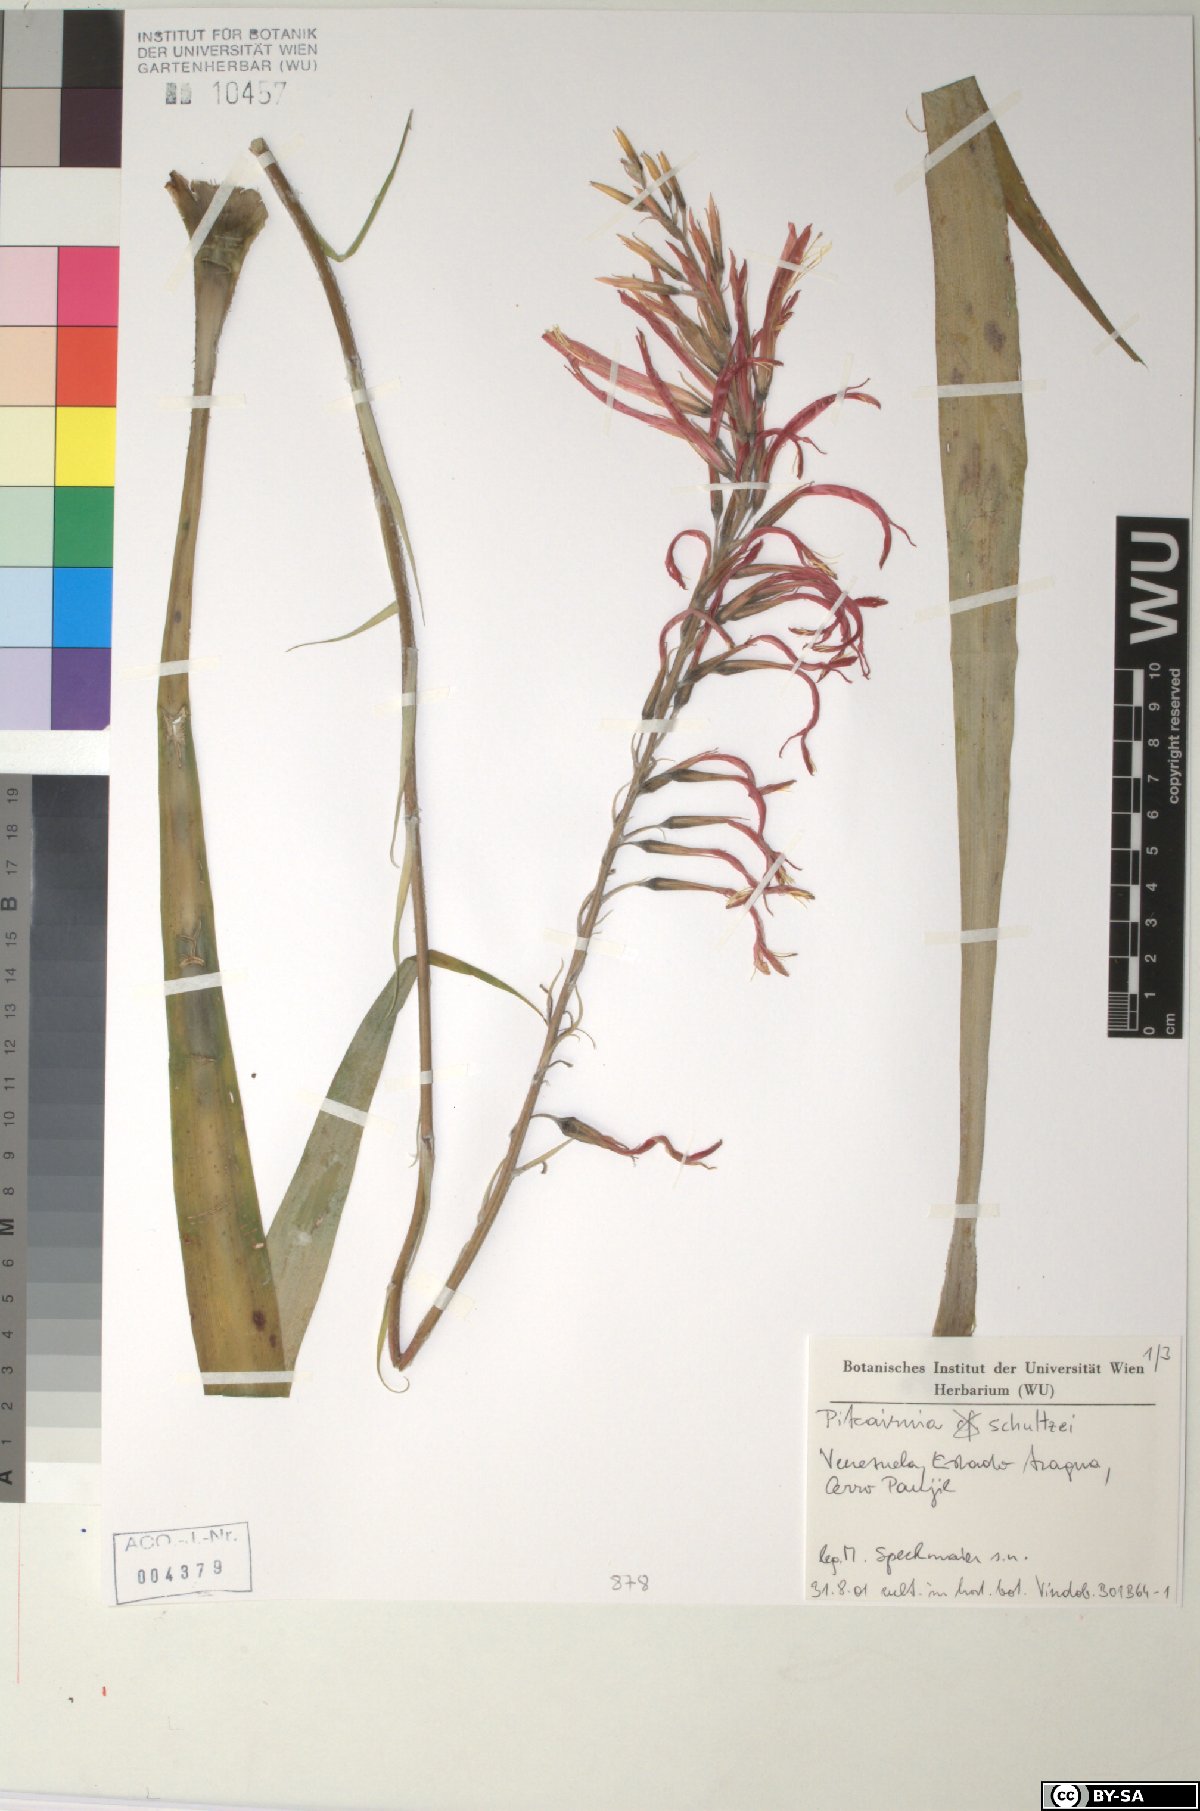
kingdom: Plantae
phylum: Tracheophyta
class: Liliopsida
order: Poales
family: Bromeliaceae
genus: Pitcairnia
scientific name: Pitcairnia schultzei
